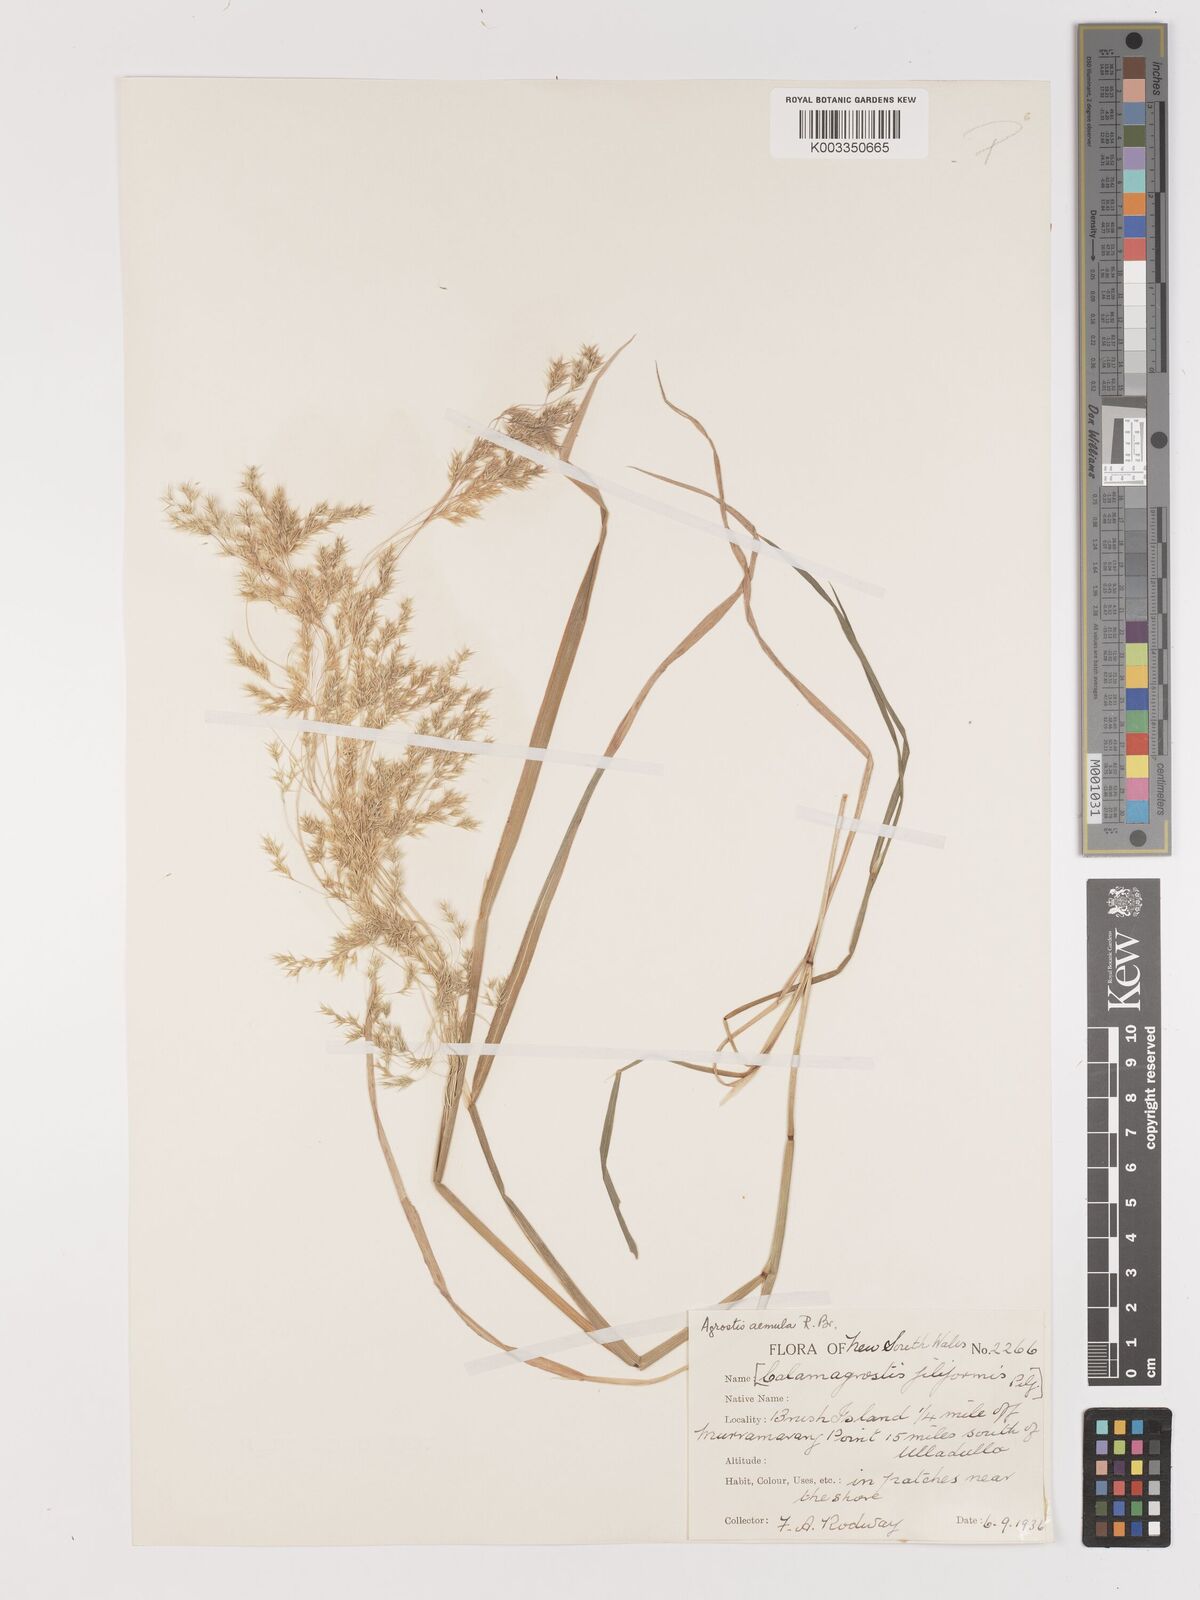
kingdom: Plantae
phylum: Tracheophyta
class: Liliopsida
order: Poales
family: Poaceae
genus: Lachnagrostis
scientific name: Lachnagrostis aemula
